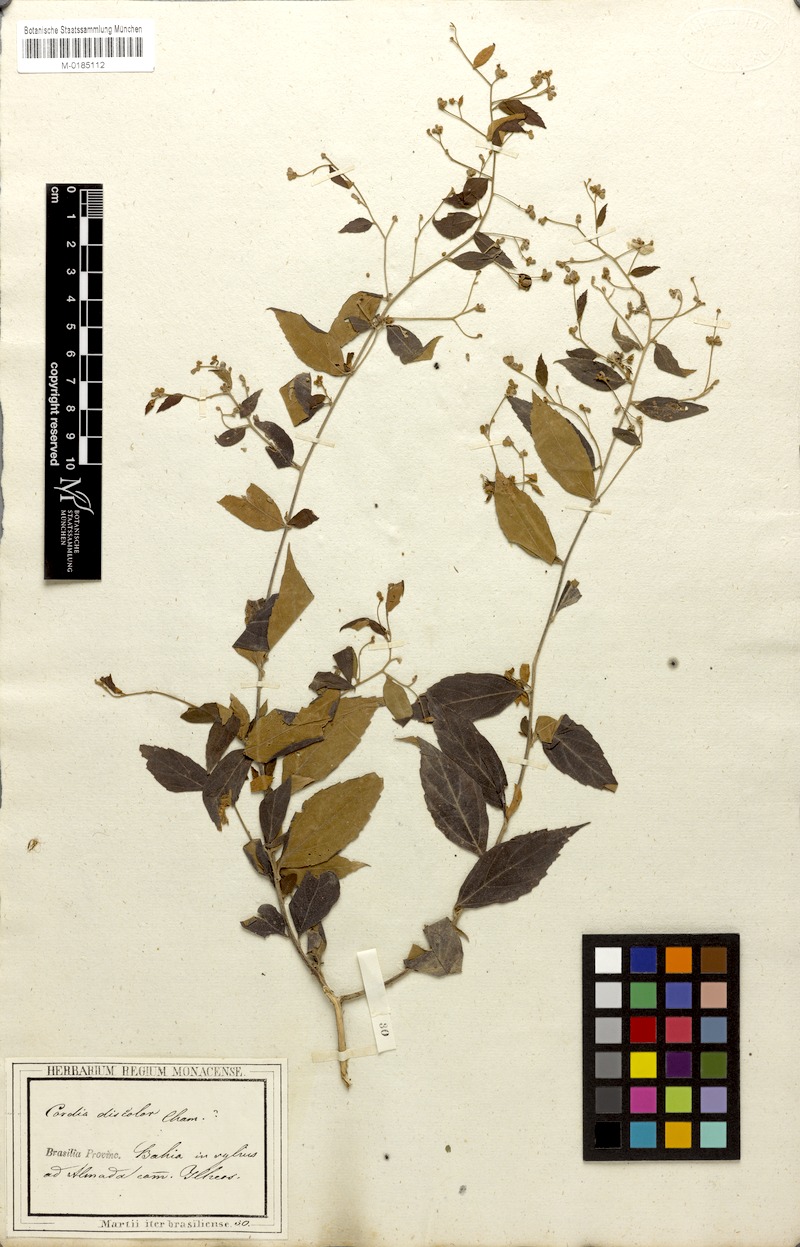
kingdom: Plantae
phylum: Tracheophyta
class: Magnoliopsida
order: Boraginales
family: Cordiaceae
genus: Varronia
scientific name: Varronia polycephala
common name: Black-sage
